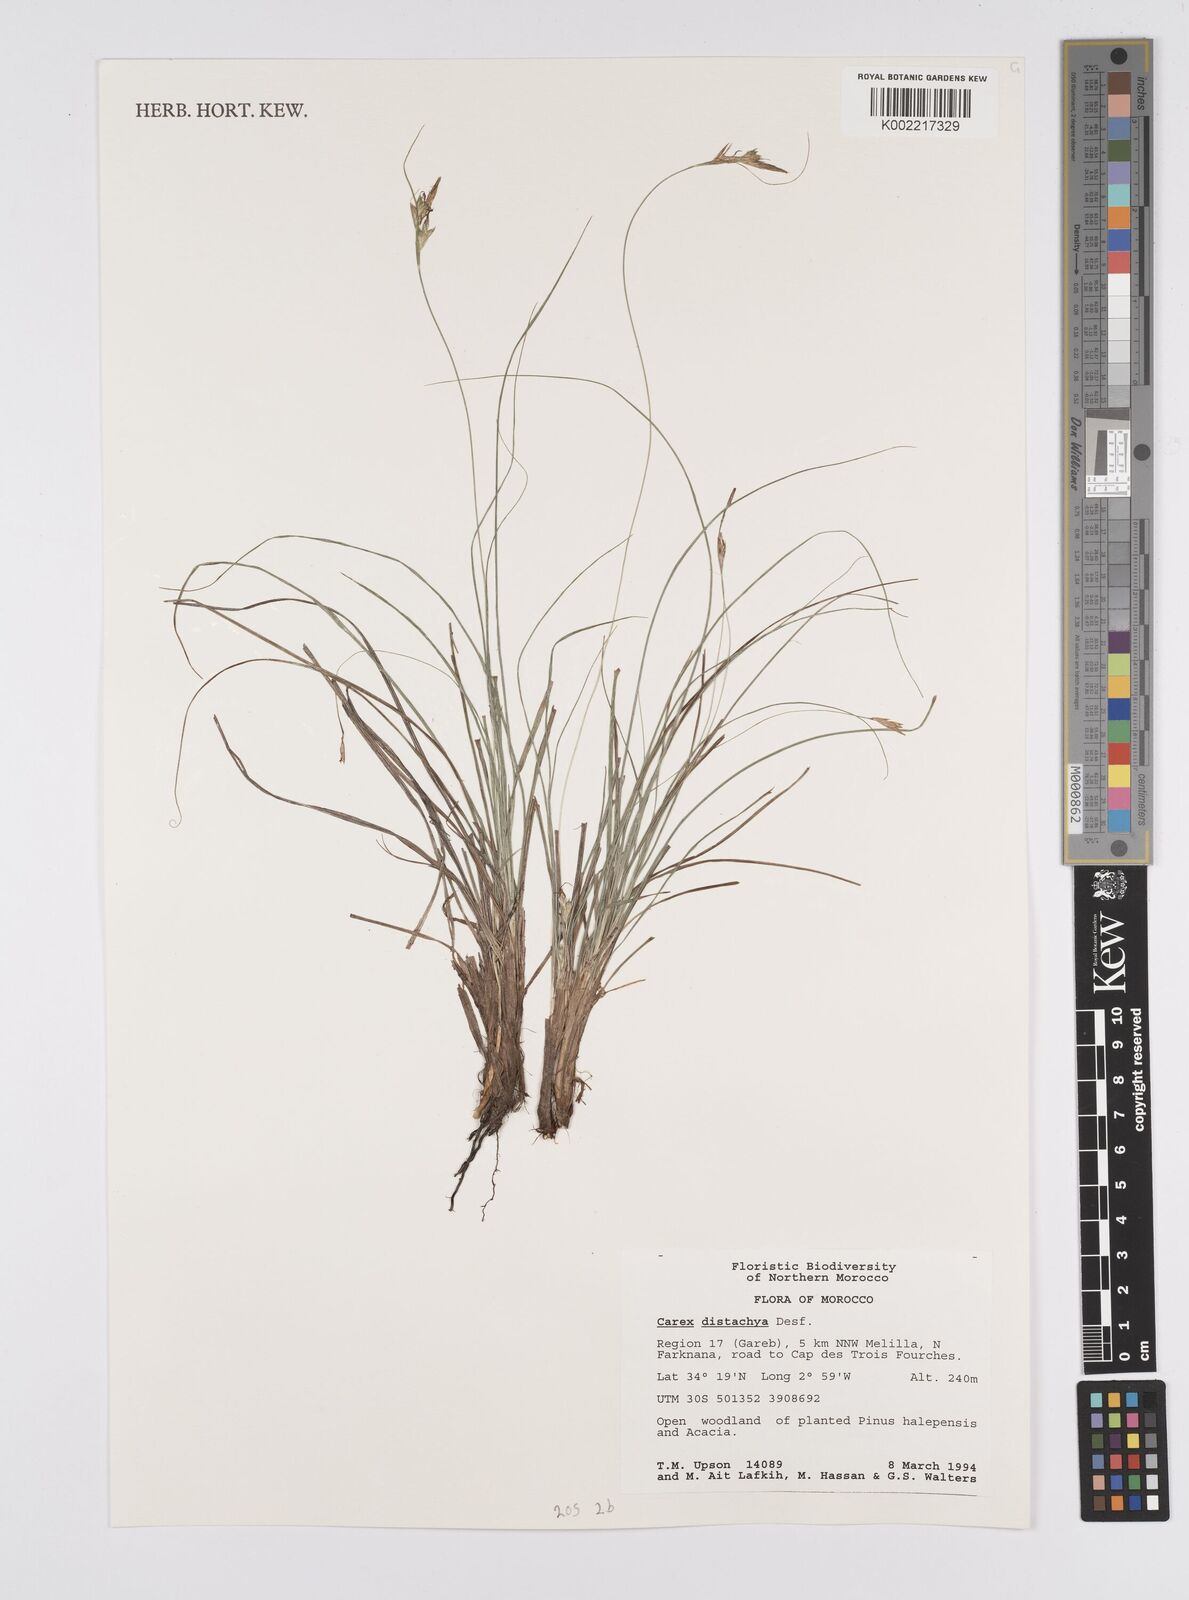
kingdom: Plantae
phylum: Tracheophyta
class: Liliopsida
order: Poales
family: Cyperaceae
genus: Carex
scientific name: Carex distachya
